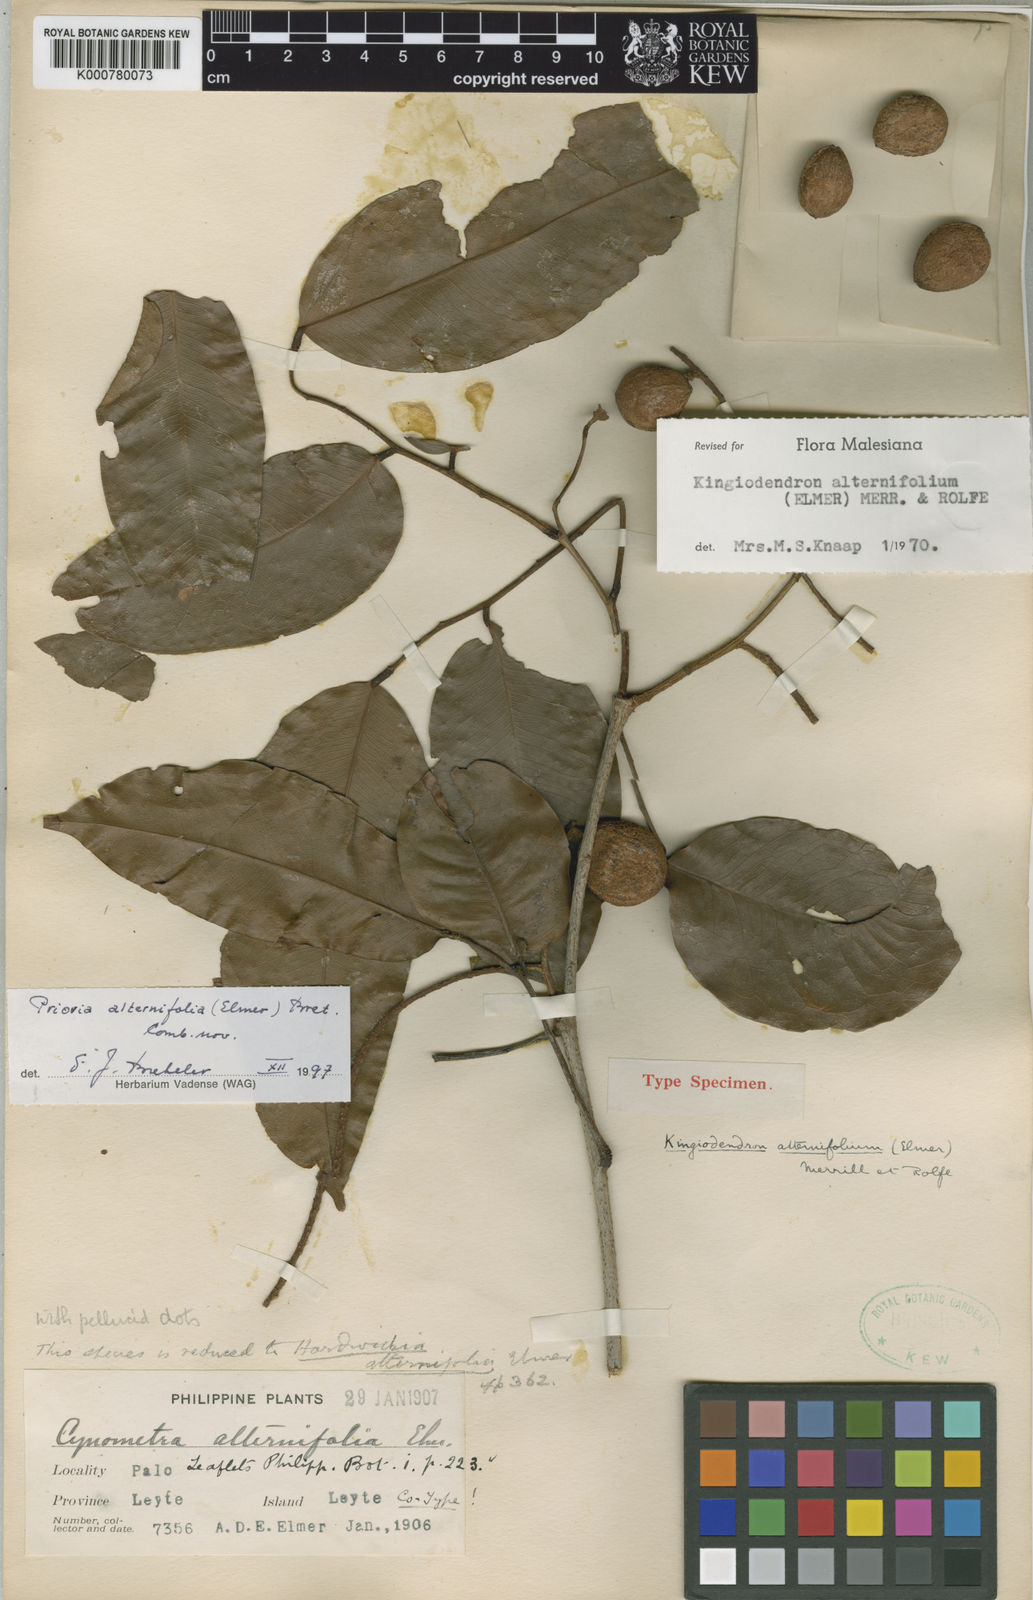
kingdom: Plantae
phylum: Tracheophyta
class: Magnoliopsida
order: Fabales
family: Fabaceae
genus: Prioria
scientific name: Prioria alternifolia
